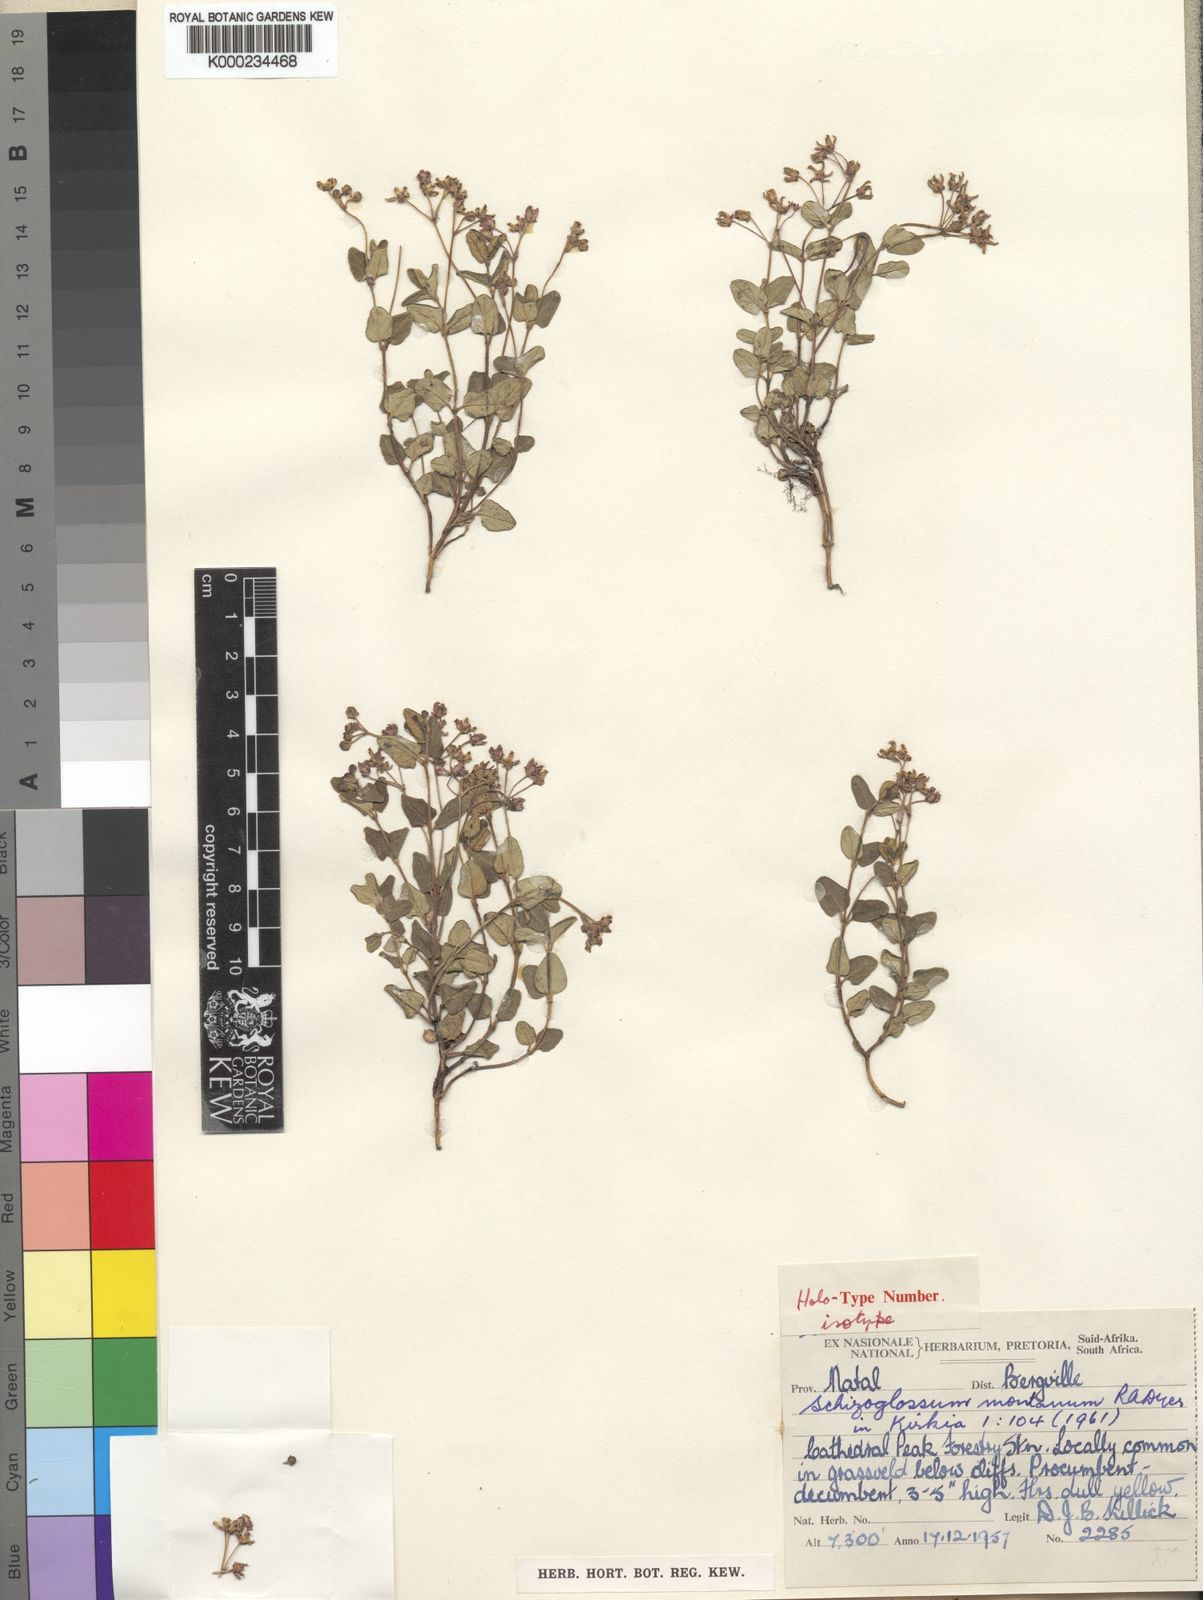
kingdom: Plantae
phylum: Tracheophyta
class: Magnoliopsida
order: Gentianales
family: Apocynaceae
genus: Schizoglossum
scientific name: Schizoglossum montanum
